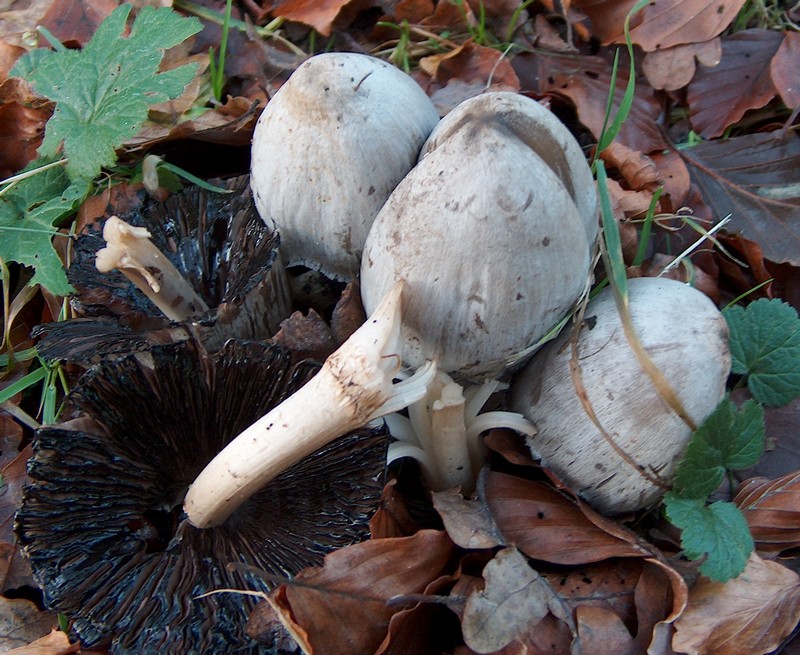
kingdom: Fungi
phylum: Basidiomycota
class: Agaricomycetes
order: Agaricales
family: Psathyrellaceae
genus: Coprinopsis
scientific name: Coprinopsis atramentaria
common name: almindelig blækhat
